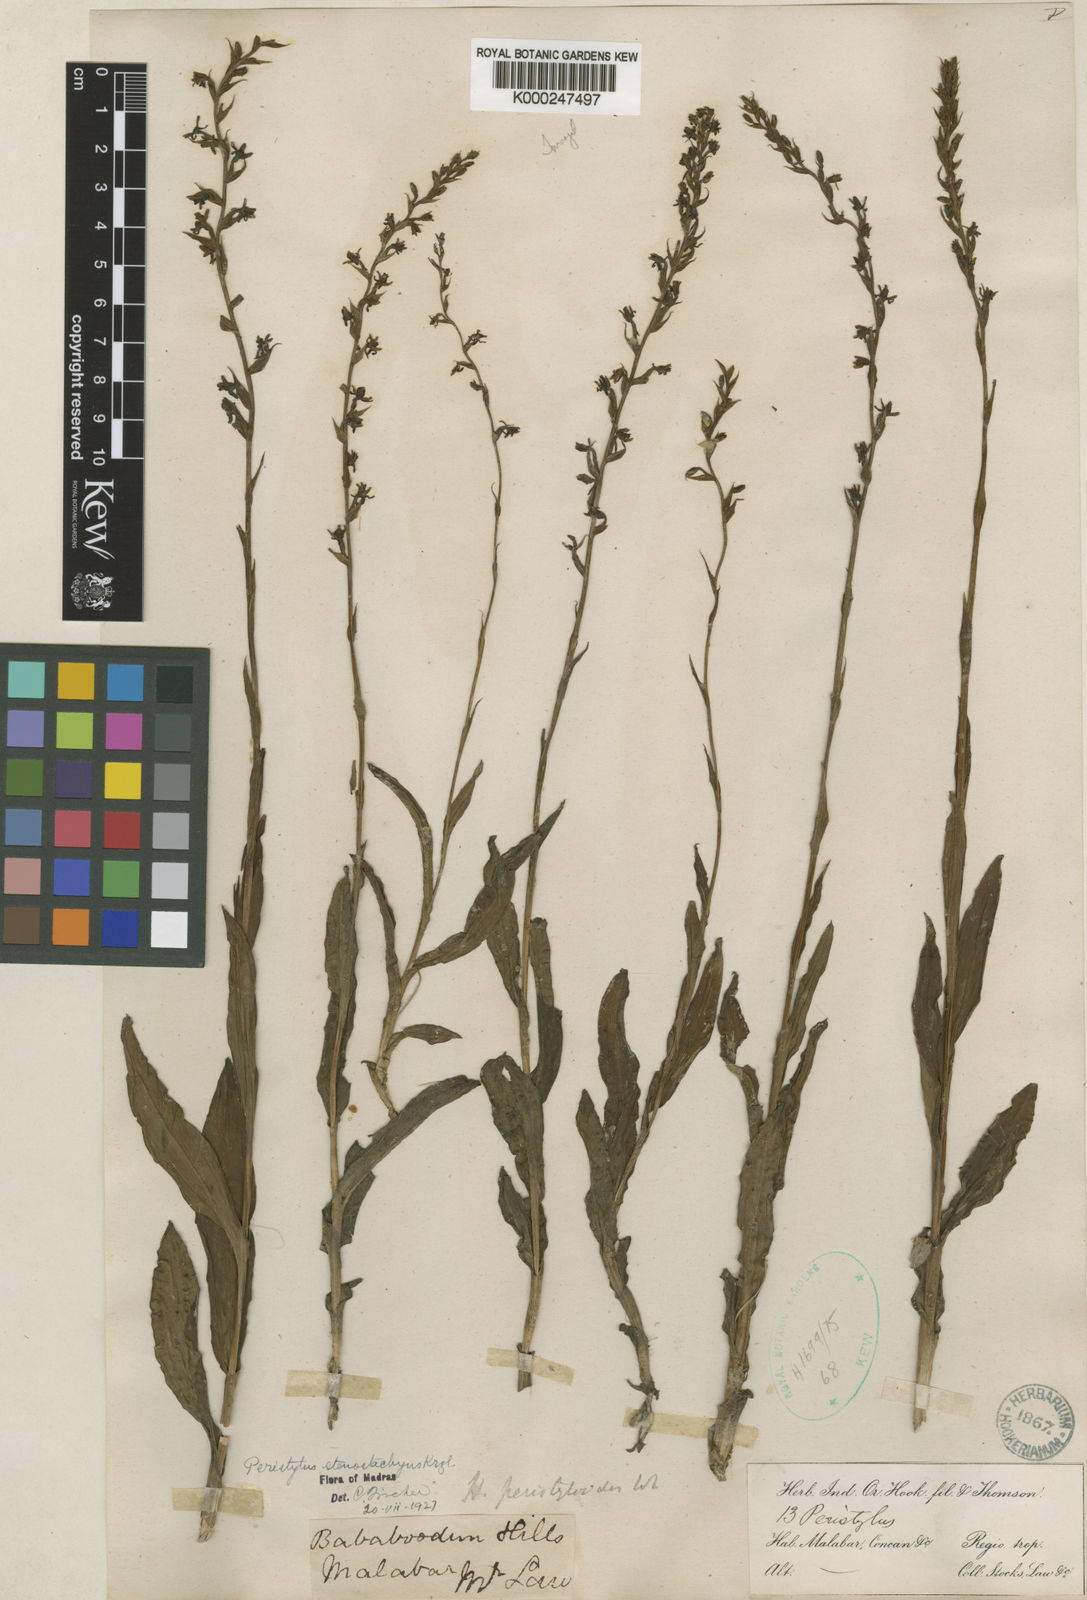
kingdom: Plantae
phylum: Tracheophyta
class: Liliopsida
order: Asparagales
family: Orchidaceae
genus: Peristylus
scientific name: Peristylus densus
